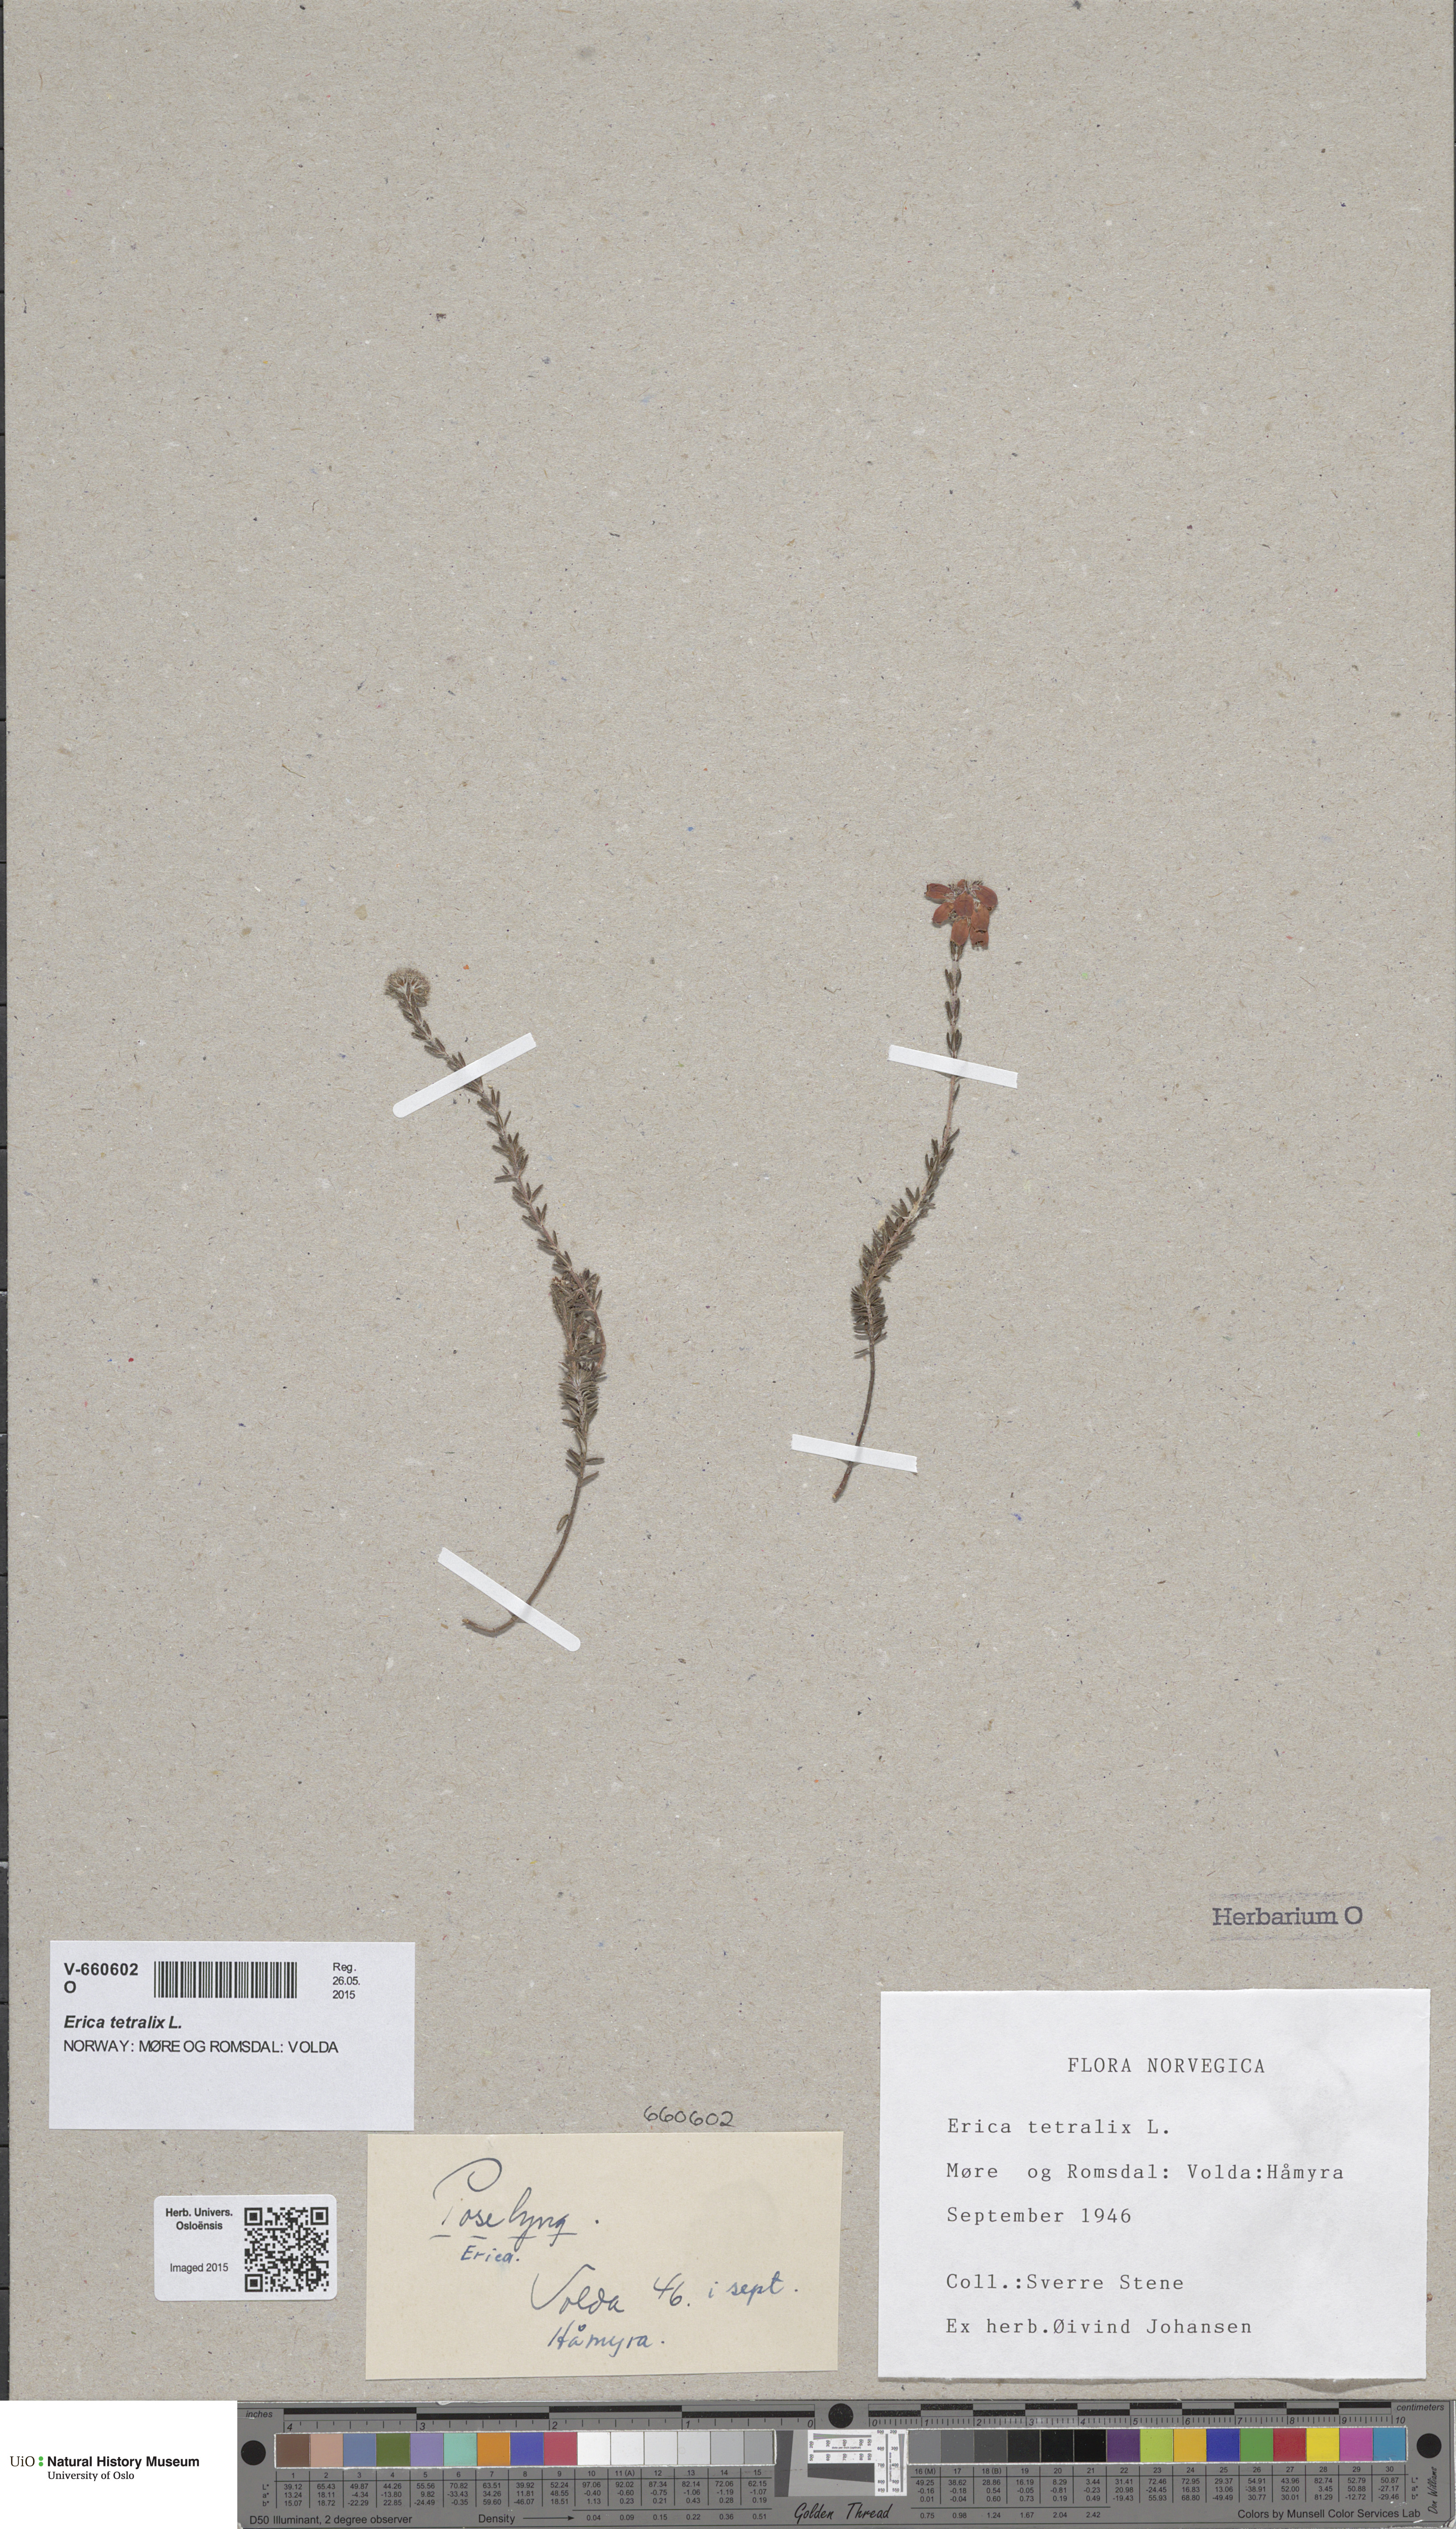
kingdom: Plantae
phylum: Tracheophyta
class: Magnoliopsida
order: Ericales
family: Ericaceae
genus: Erica
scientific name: Erica tetralix
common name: Cross-leaved heath
